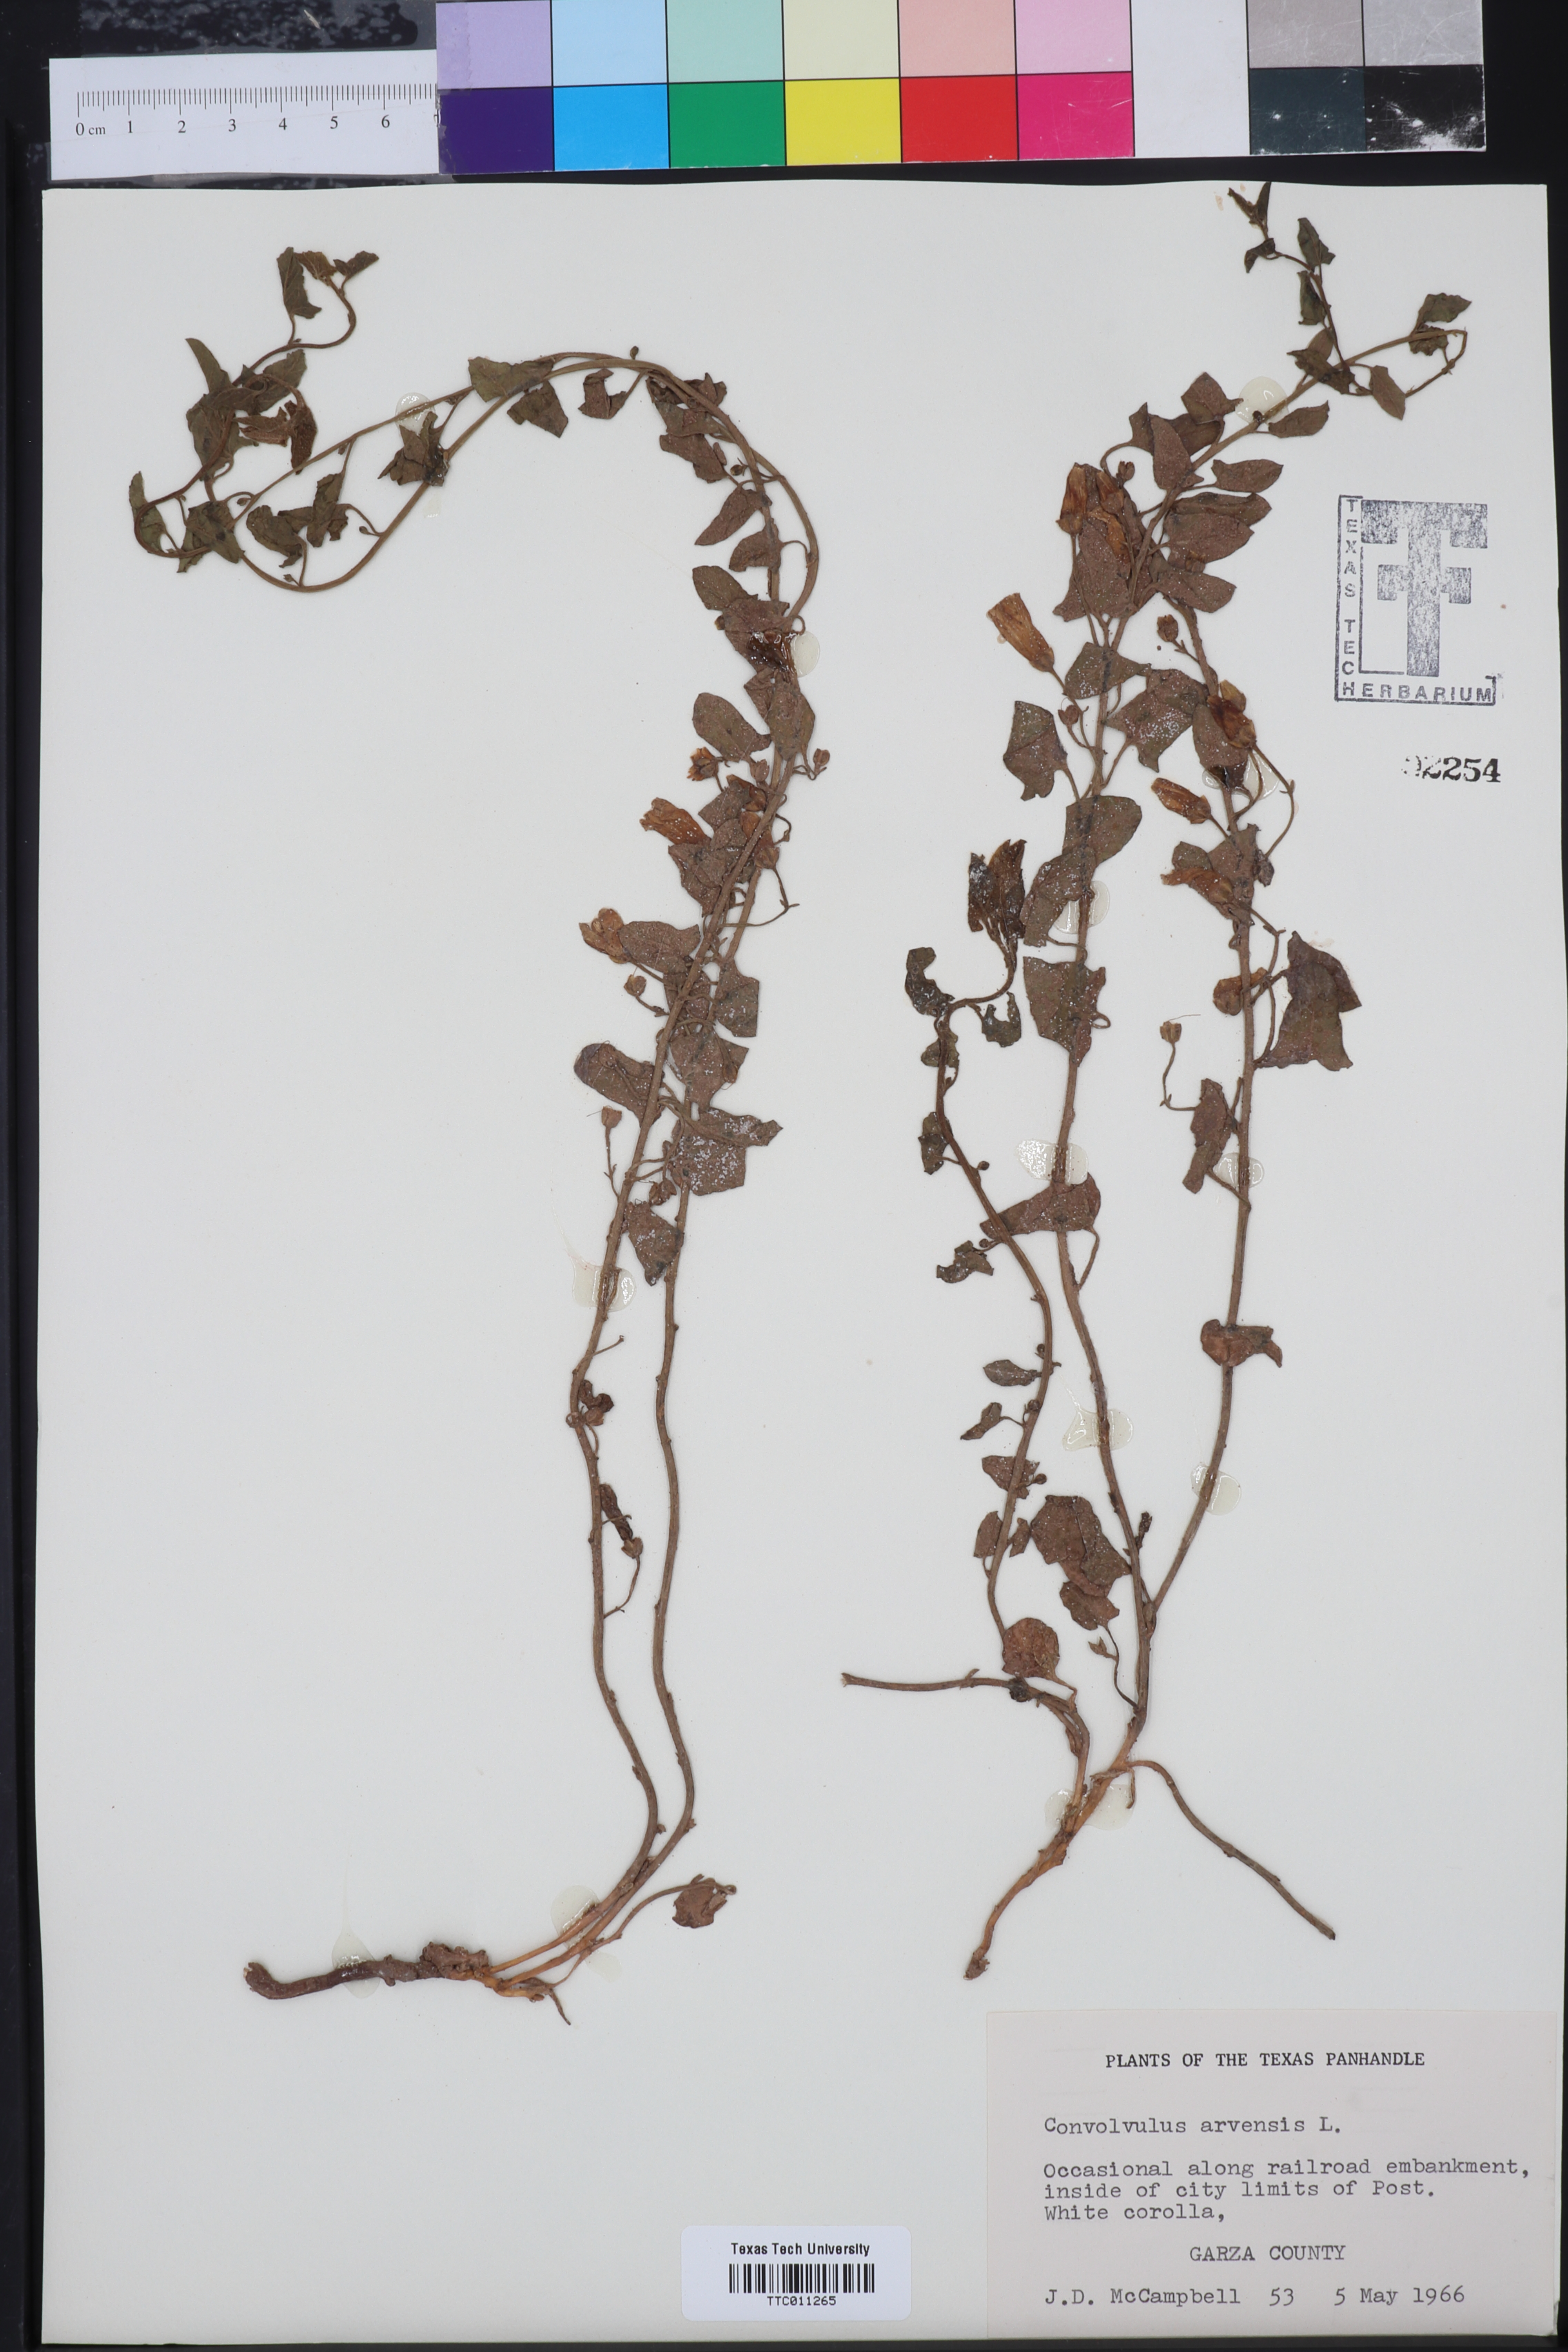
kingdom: Plantae
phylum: Tracheophyta
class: Magnoliopsida
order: Solanales
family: Convolvulaceae
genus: Convolvulus
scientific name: Convolvulus arvensis
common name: Field bindweed
